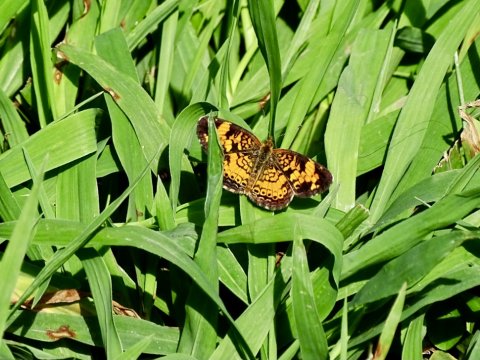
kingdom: Animalia
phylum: Arthropoda
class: Insecta
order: Lepidoptera
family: Nymphalidae
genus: Phyciodes
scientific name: Phyciodes tharos
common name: Pearl Crescent
